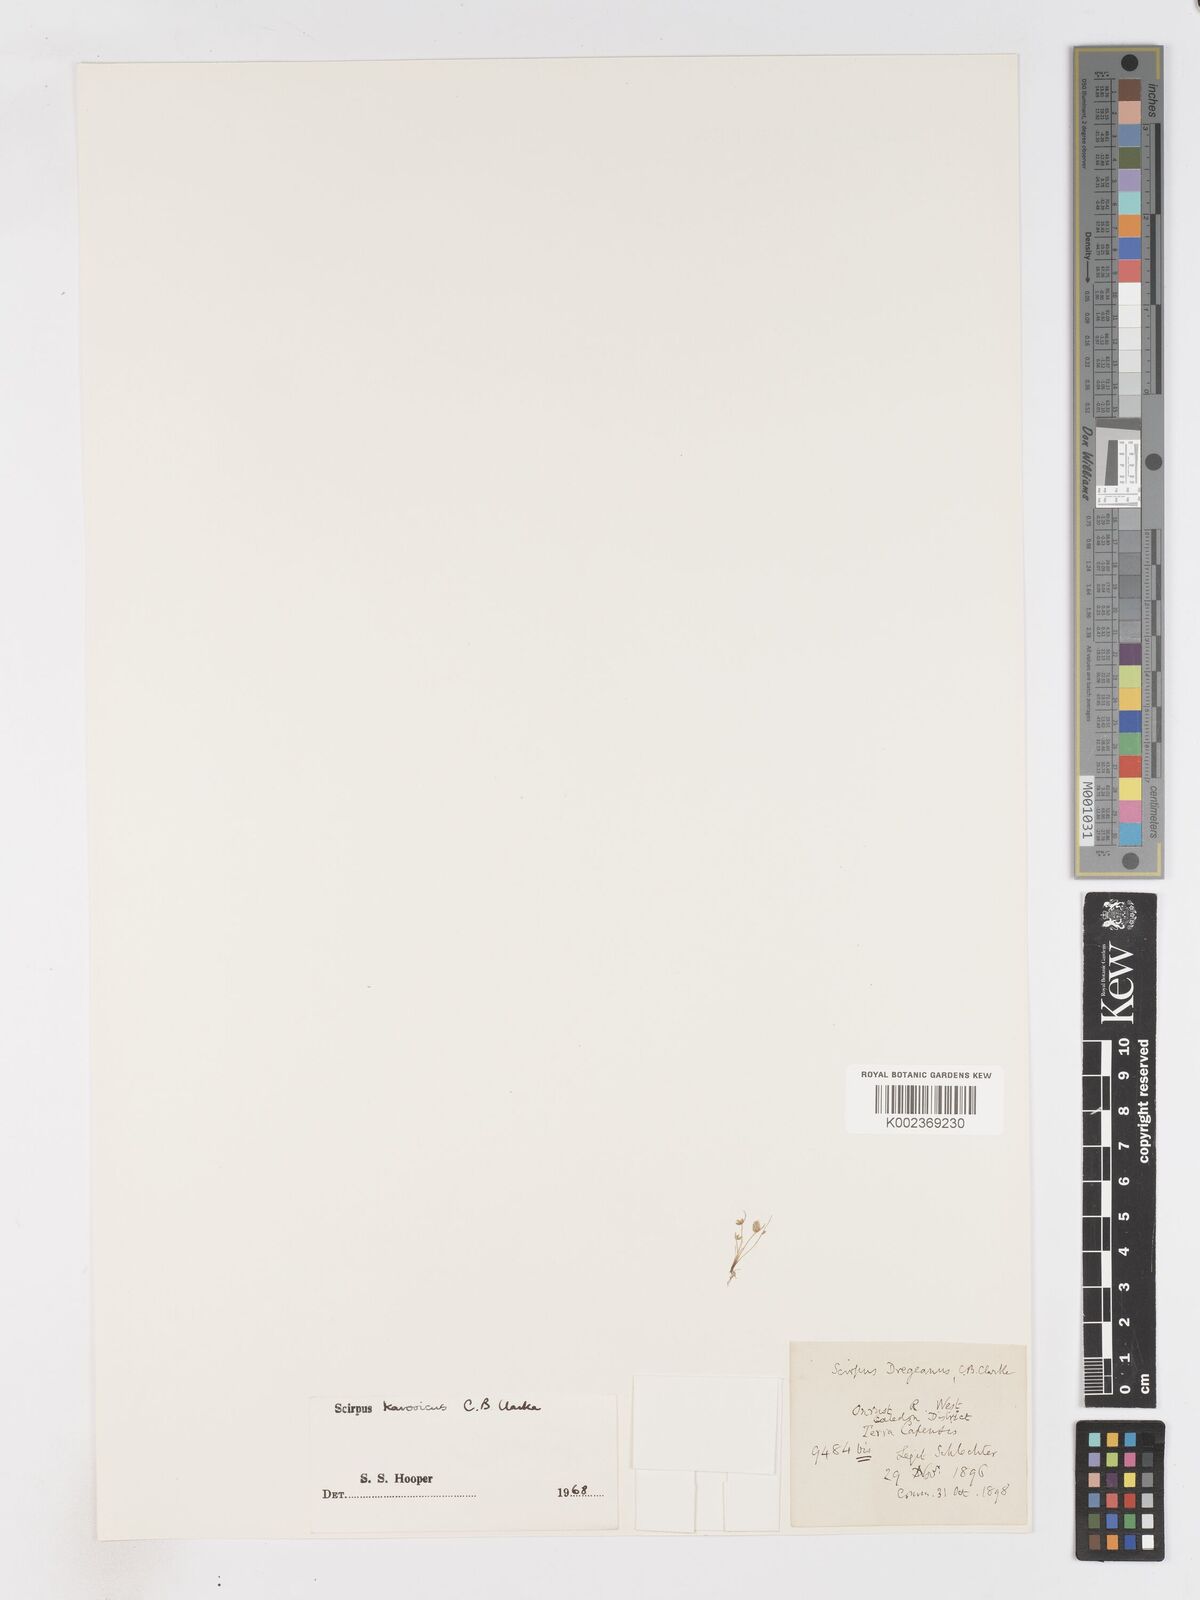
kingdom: Plantae
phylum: Tracheophyta
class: Liliopsida
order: Poales
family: Cyperaceae
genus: Isolepis
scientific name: Isolepis karroica
